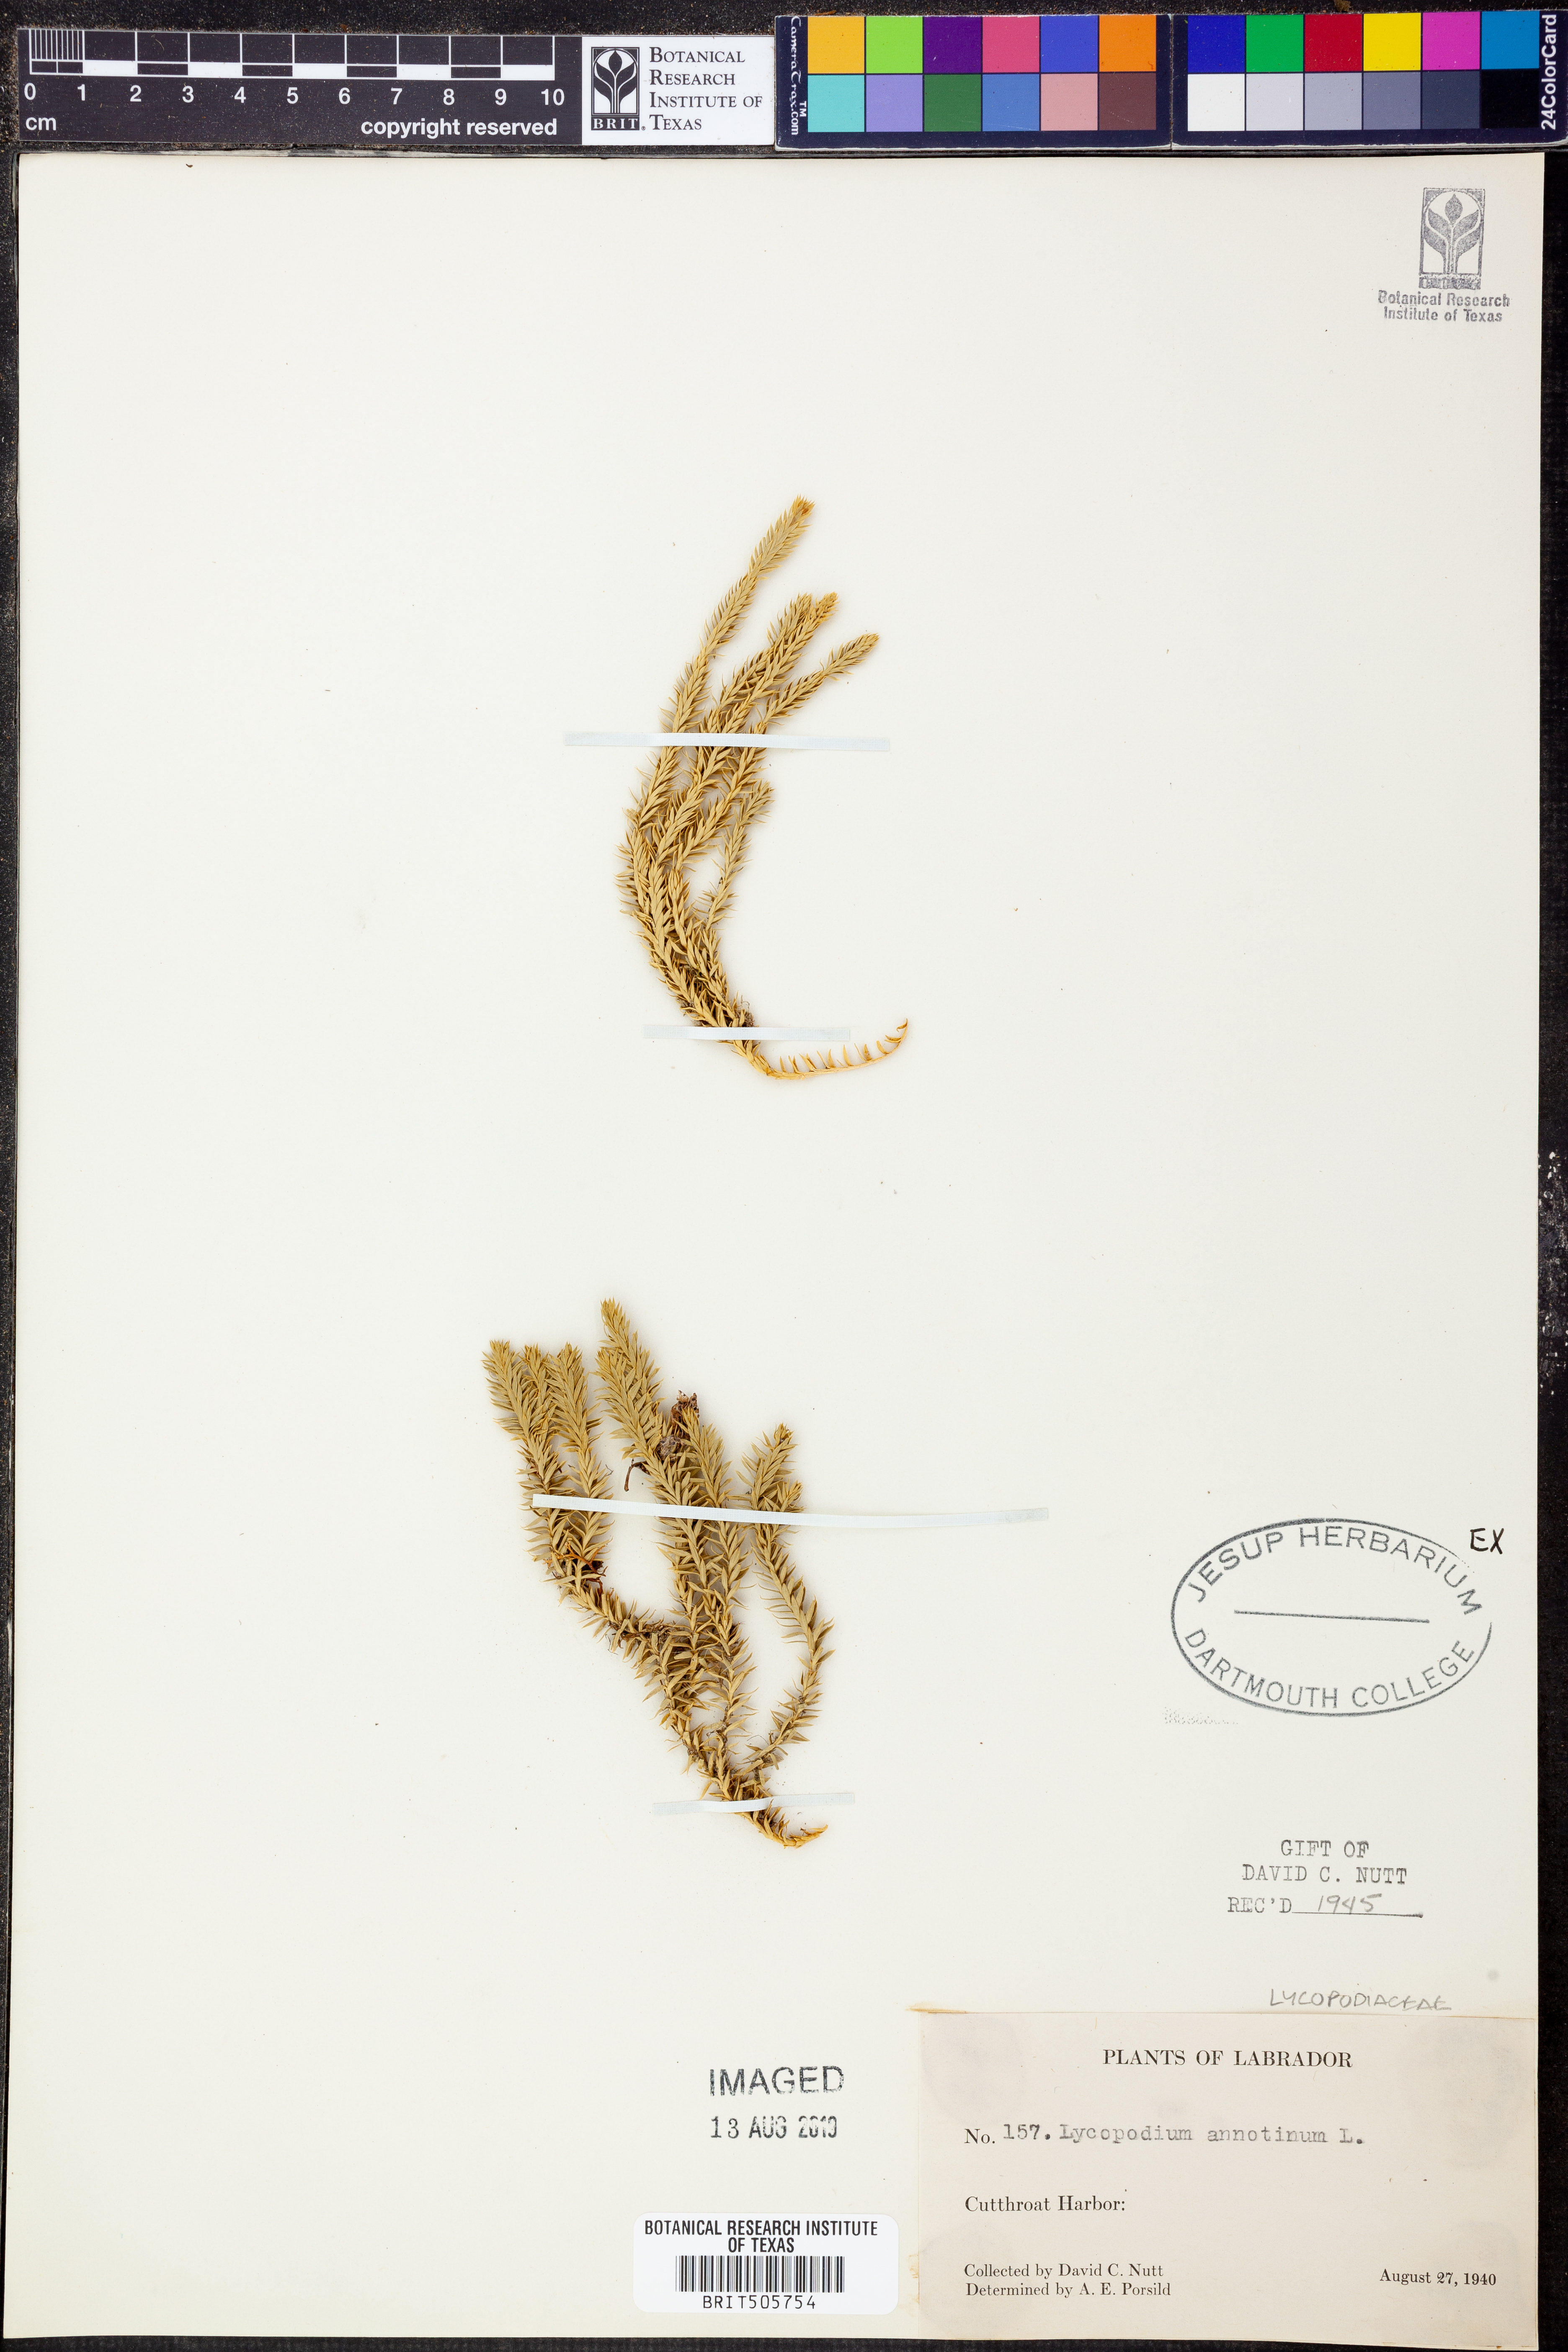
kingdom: Plantae
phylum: Tracheophyta
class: Lycopodiopsida
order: Lycopodiales
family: Lycopodiaceae
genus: Spinulum
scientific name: Spinulum annotinum
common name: Interrupted club-moss
